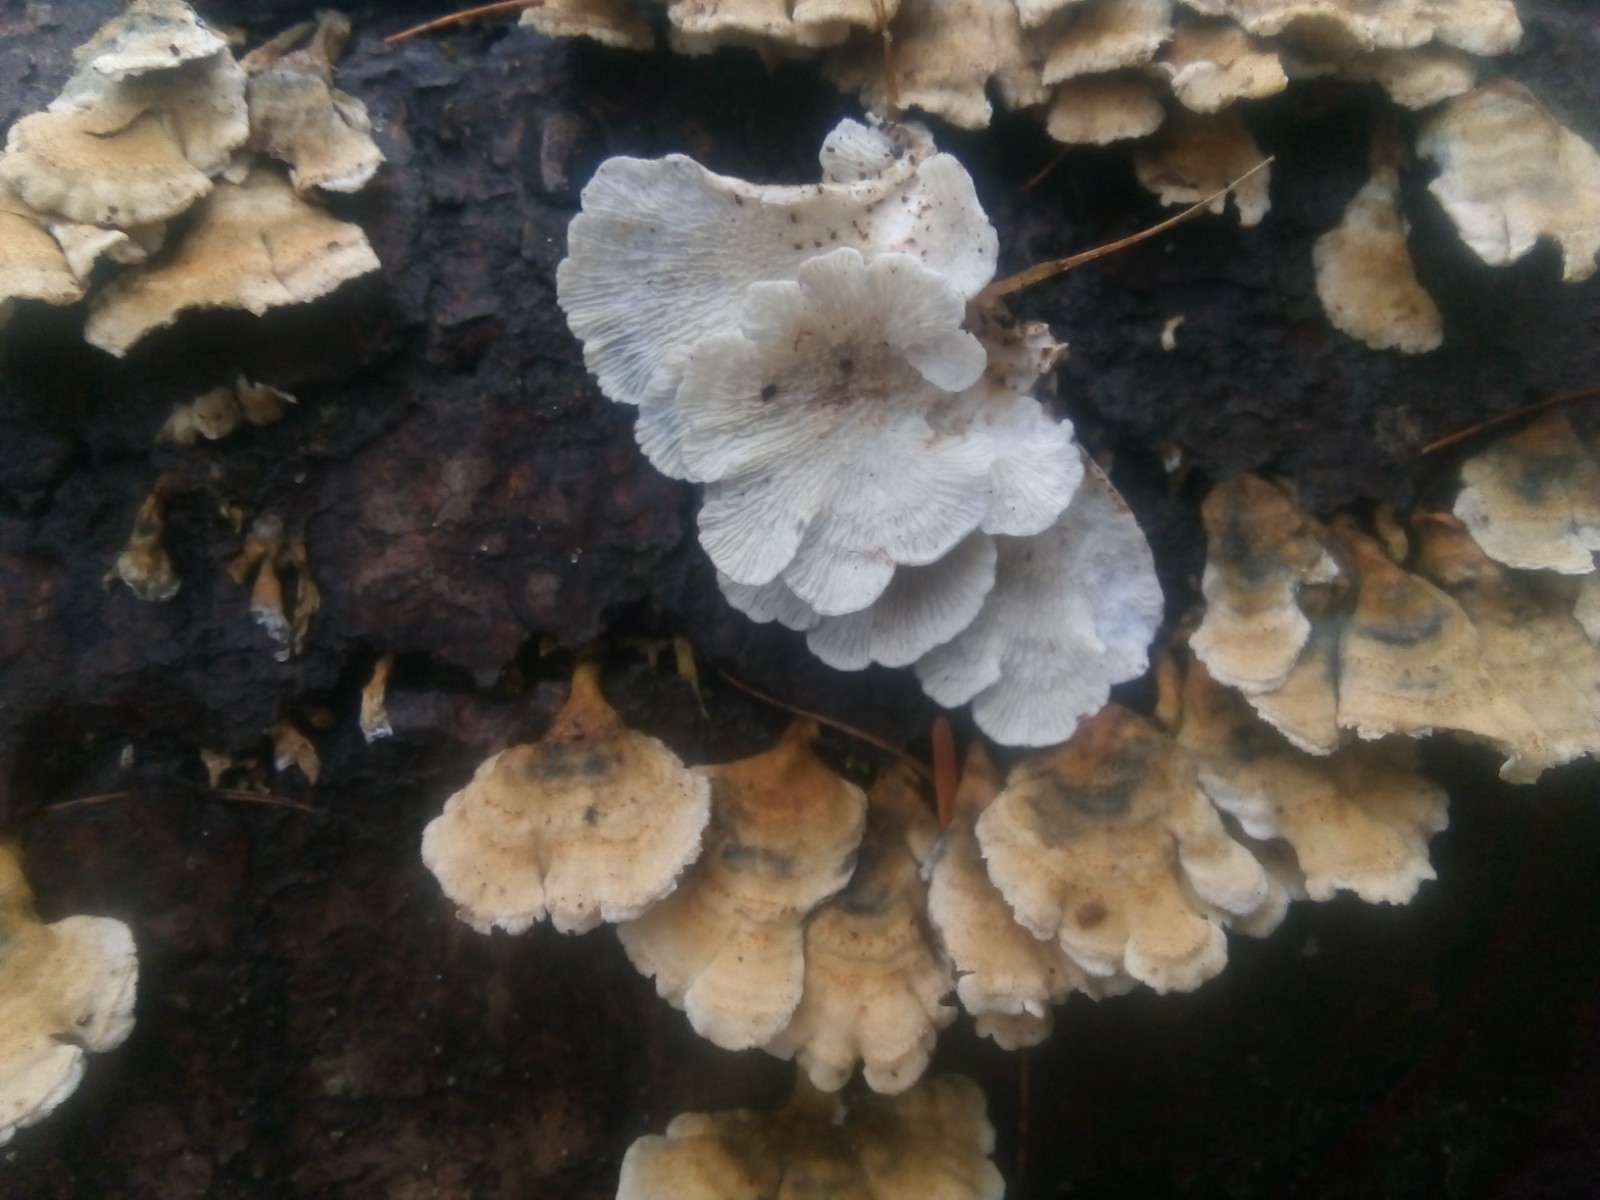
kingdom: Fungi
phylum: Basidiomycota
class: Agaricomycetes
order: Amylocorticiales
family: Amylocorticiaceae
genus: Plicaturopsis
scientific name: Plicaturopsis crispa
